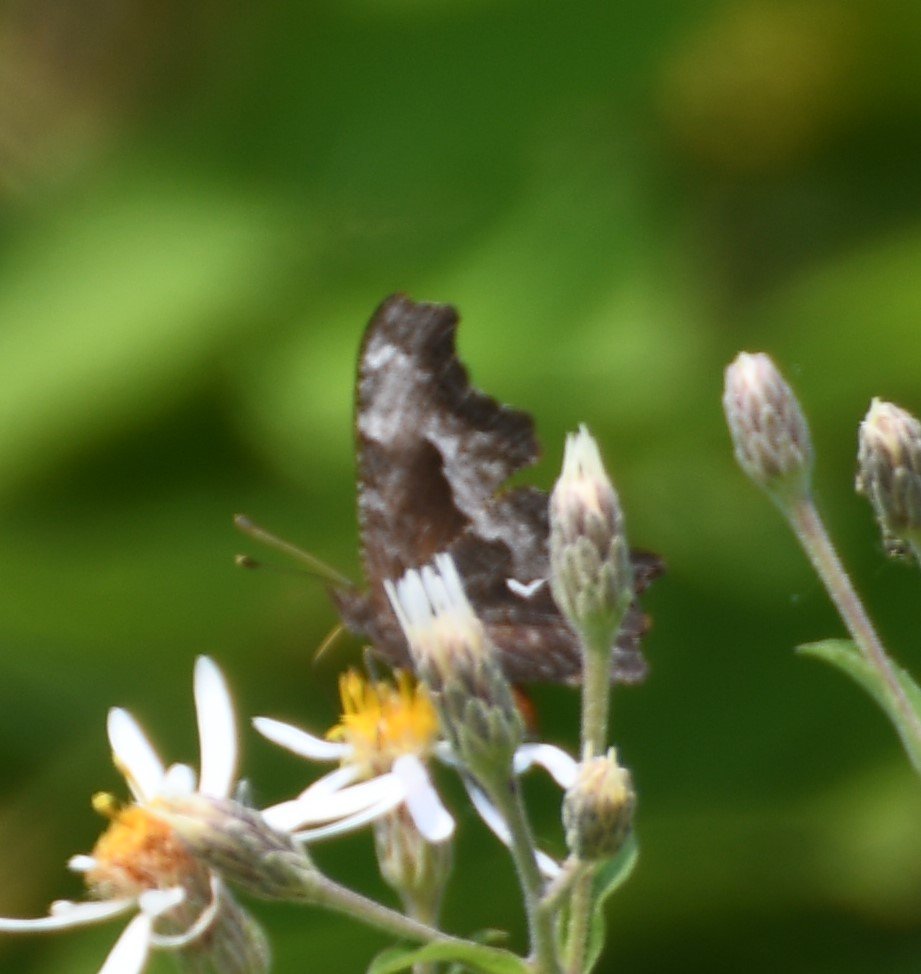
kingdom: Animalia
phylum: Arthropoda
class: Insecta
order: Lepidoptera
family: Nymphalidae
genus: Polygonia
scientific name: Polygonia gracilis
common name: Hoary Comma
